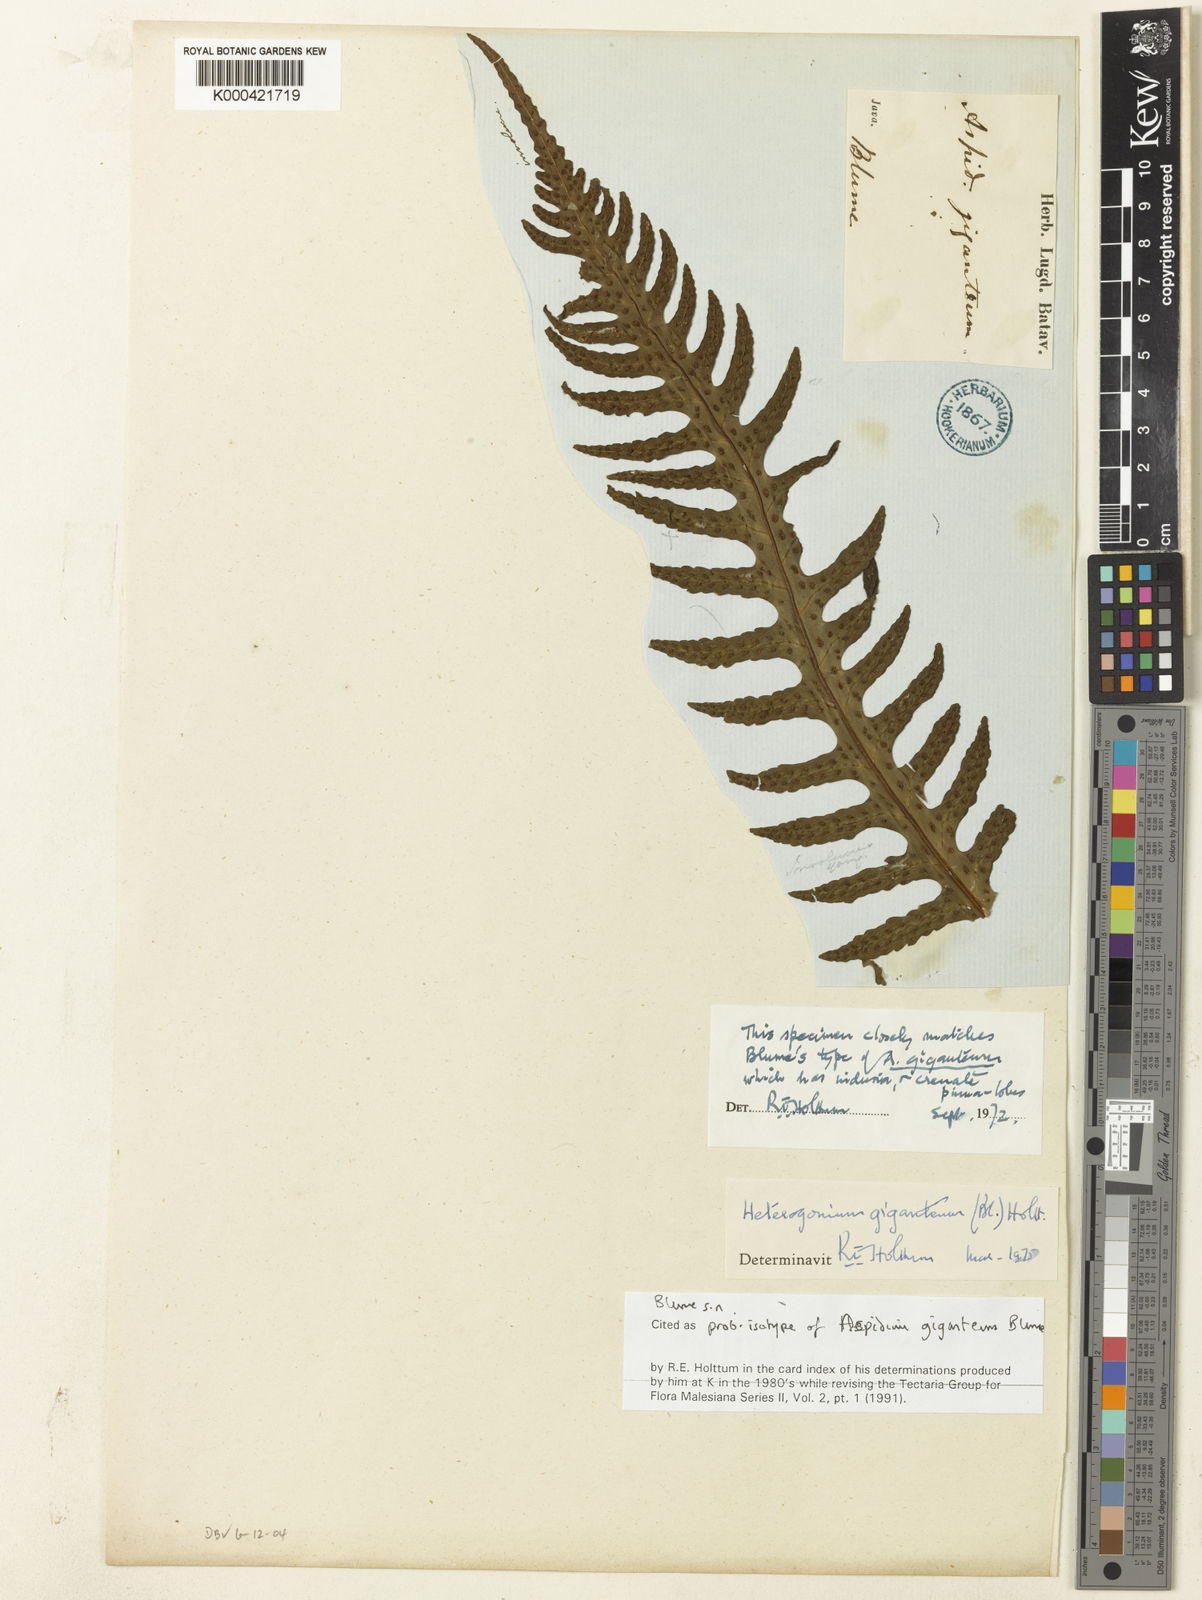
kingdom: Plantae
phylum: Tracheophyta
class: Polypodiopsida
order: Polypodiales
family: Tectariaceae
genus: Tectaria
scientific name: Tectaria gigantea
